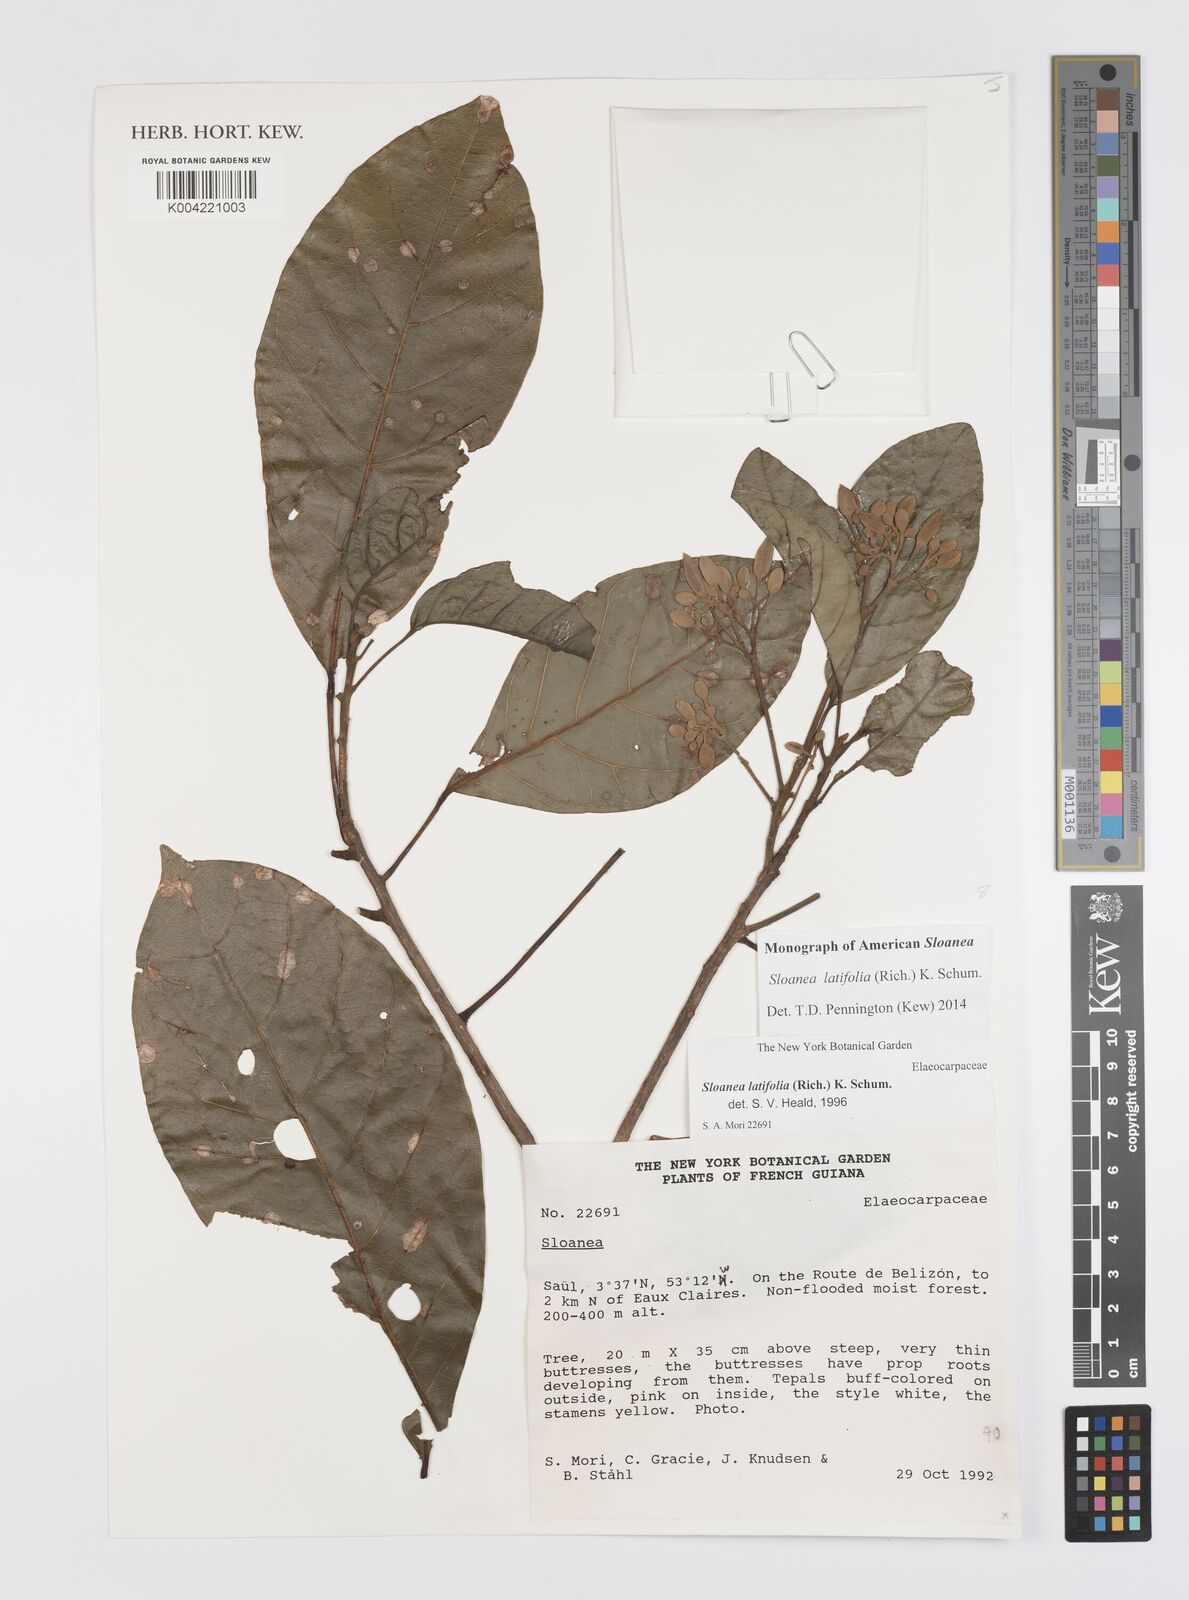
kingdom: Plantae
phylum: Tracheophyta
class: Magnoliopsida
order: Oxalidales
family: Elaeocarpaceae
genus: Sloanea
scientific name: Sloanea latifolia
